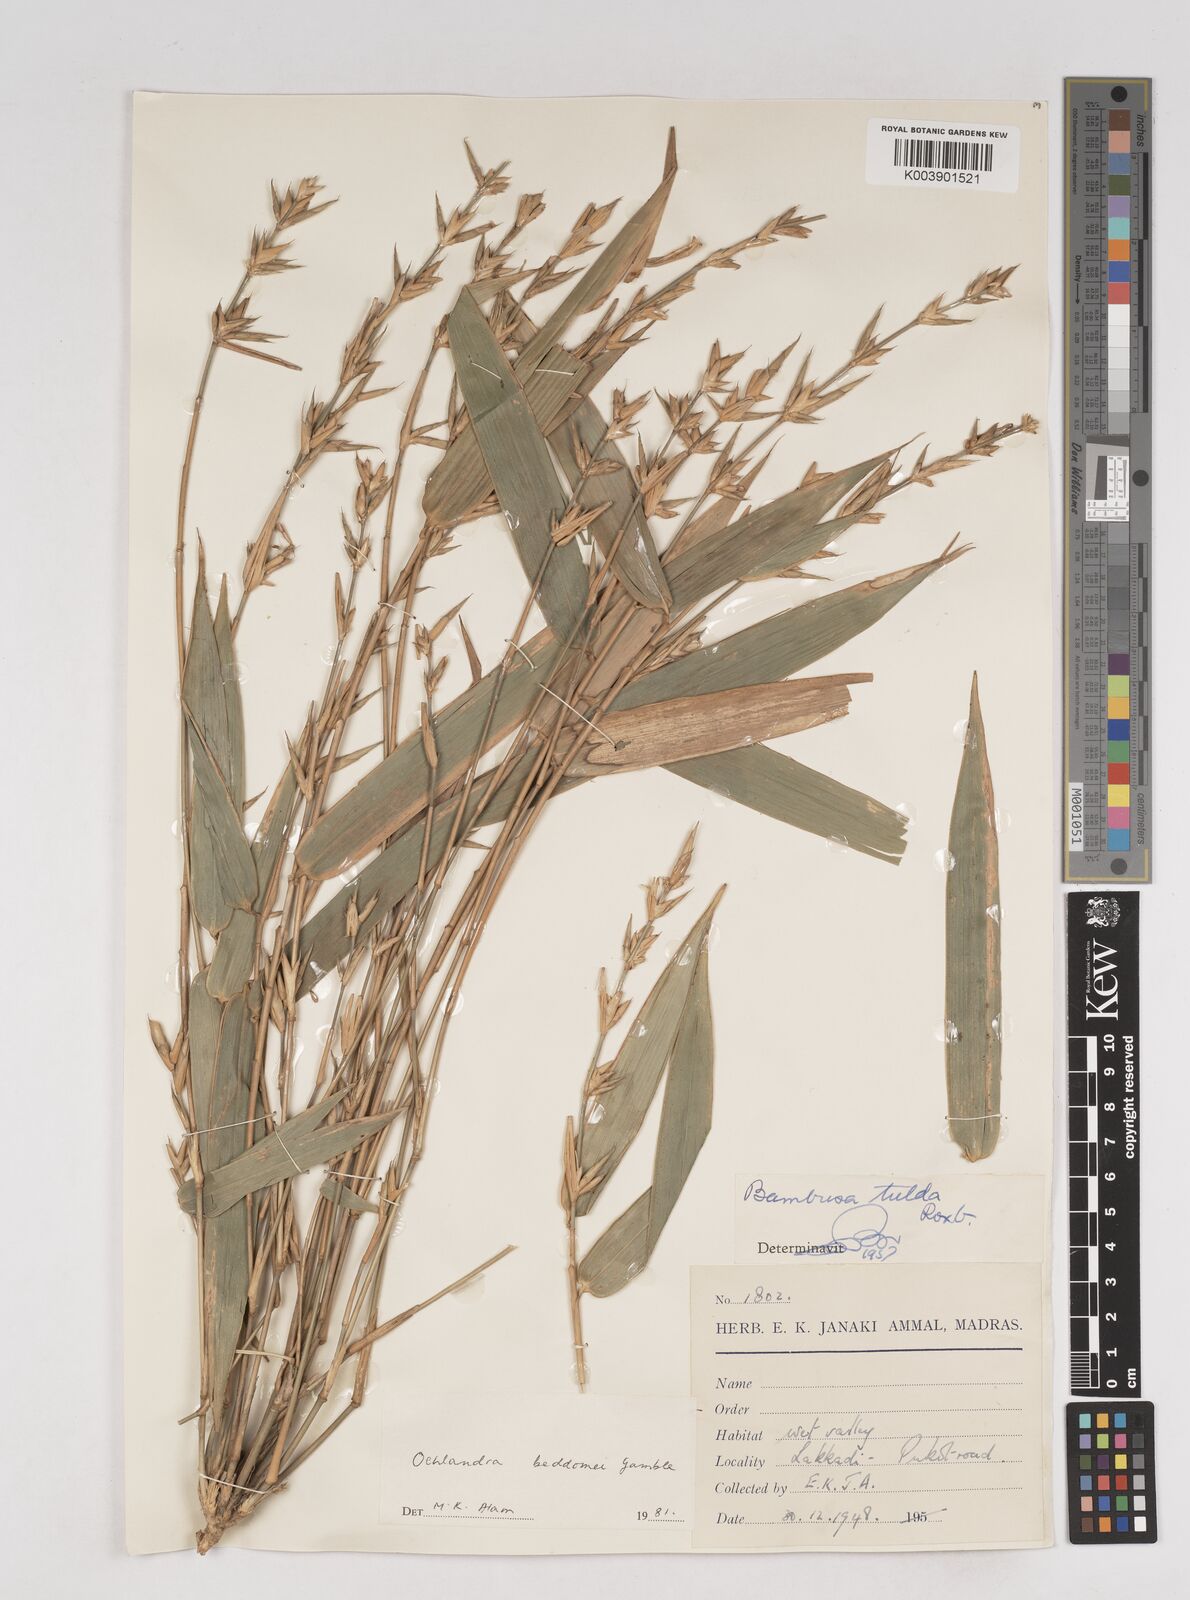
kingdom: Plantae
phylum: Tracheophyta
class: Liliopsida
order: Poales
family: Poaceae
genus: Ochlandra
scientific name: Ochlandra beddomei
